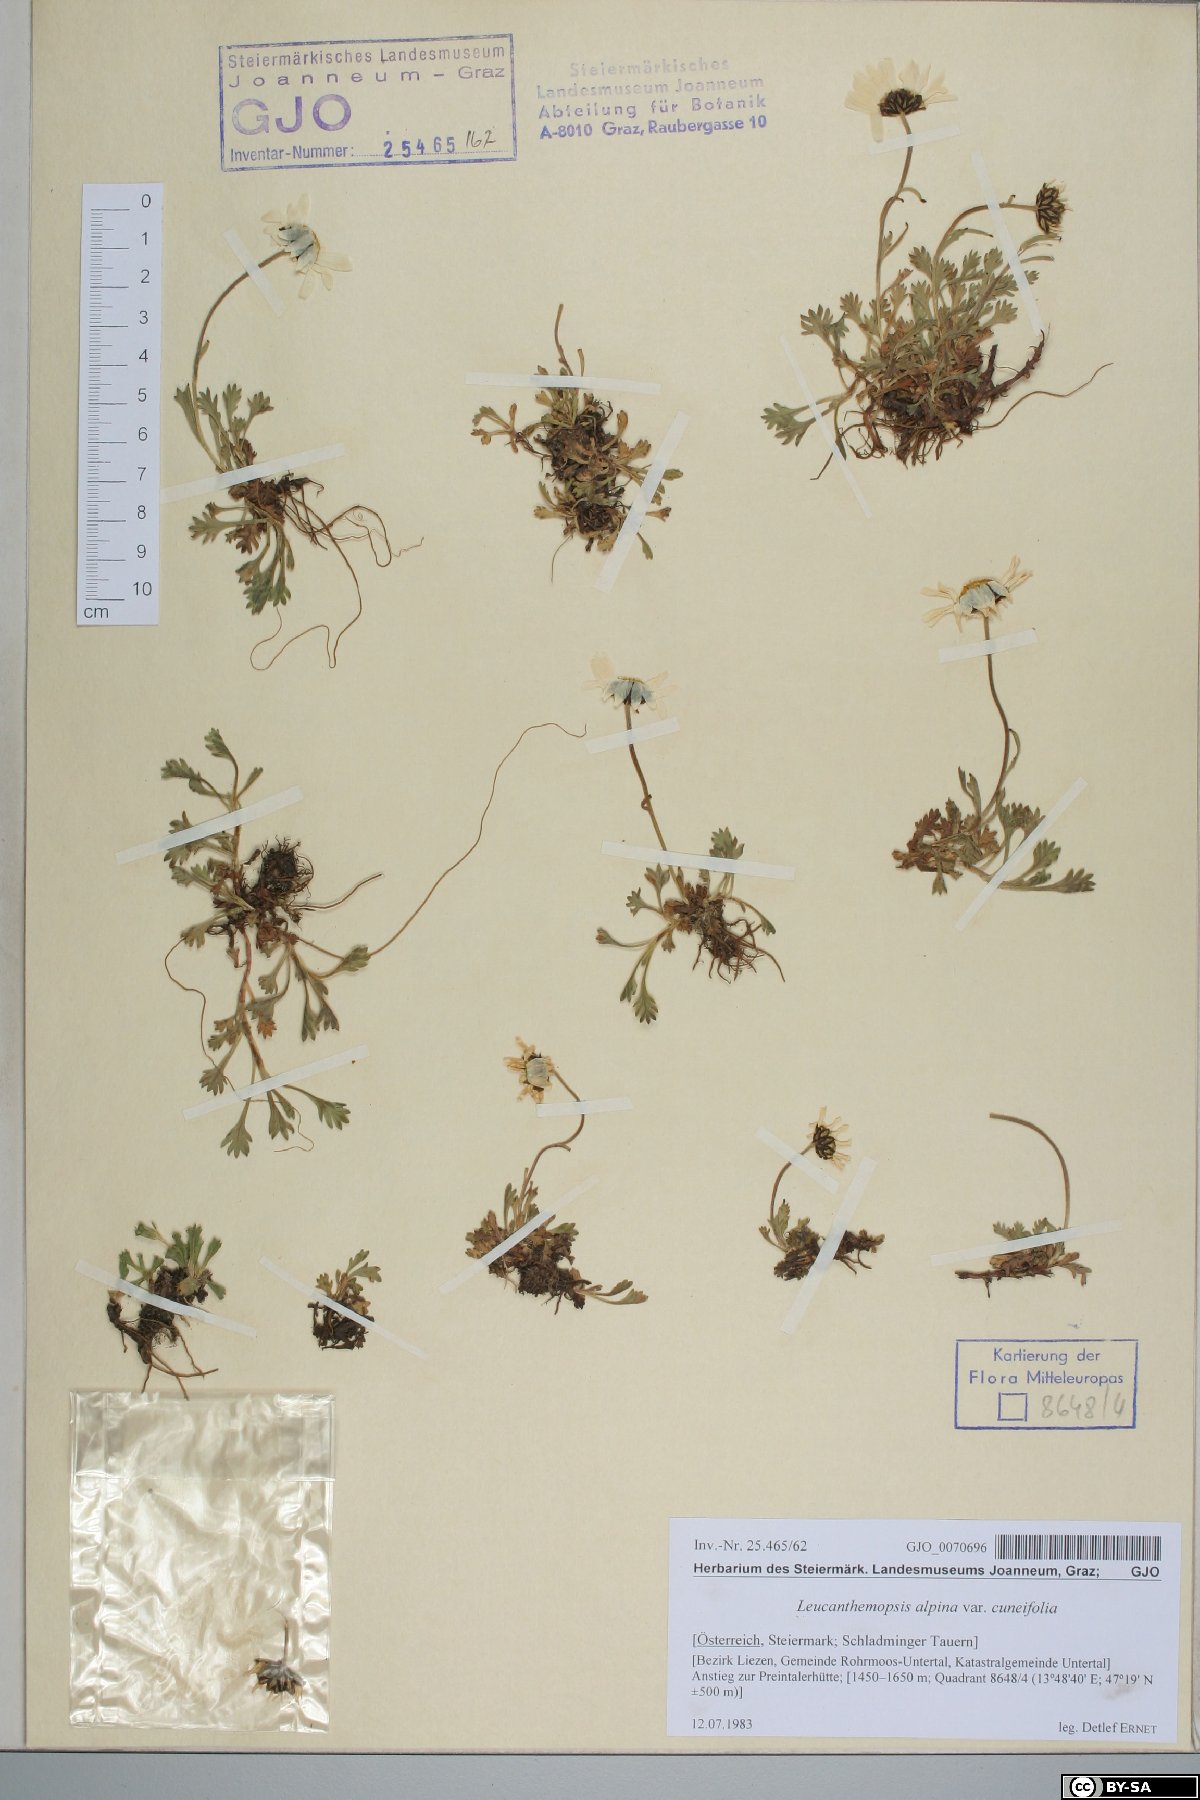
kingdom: Plantae
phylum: Tracheophyta
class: Magnoliopsida
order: Asterales
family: Asteraceae
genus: Leucanthemopsis
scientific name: Leucanthemopsis alpina
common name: Alpine moon daisy
